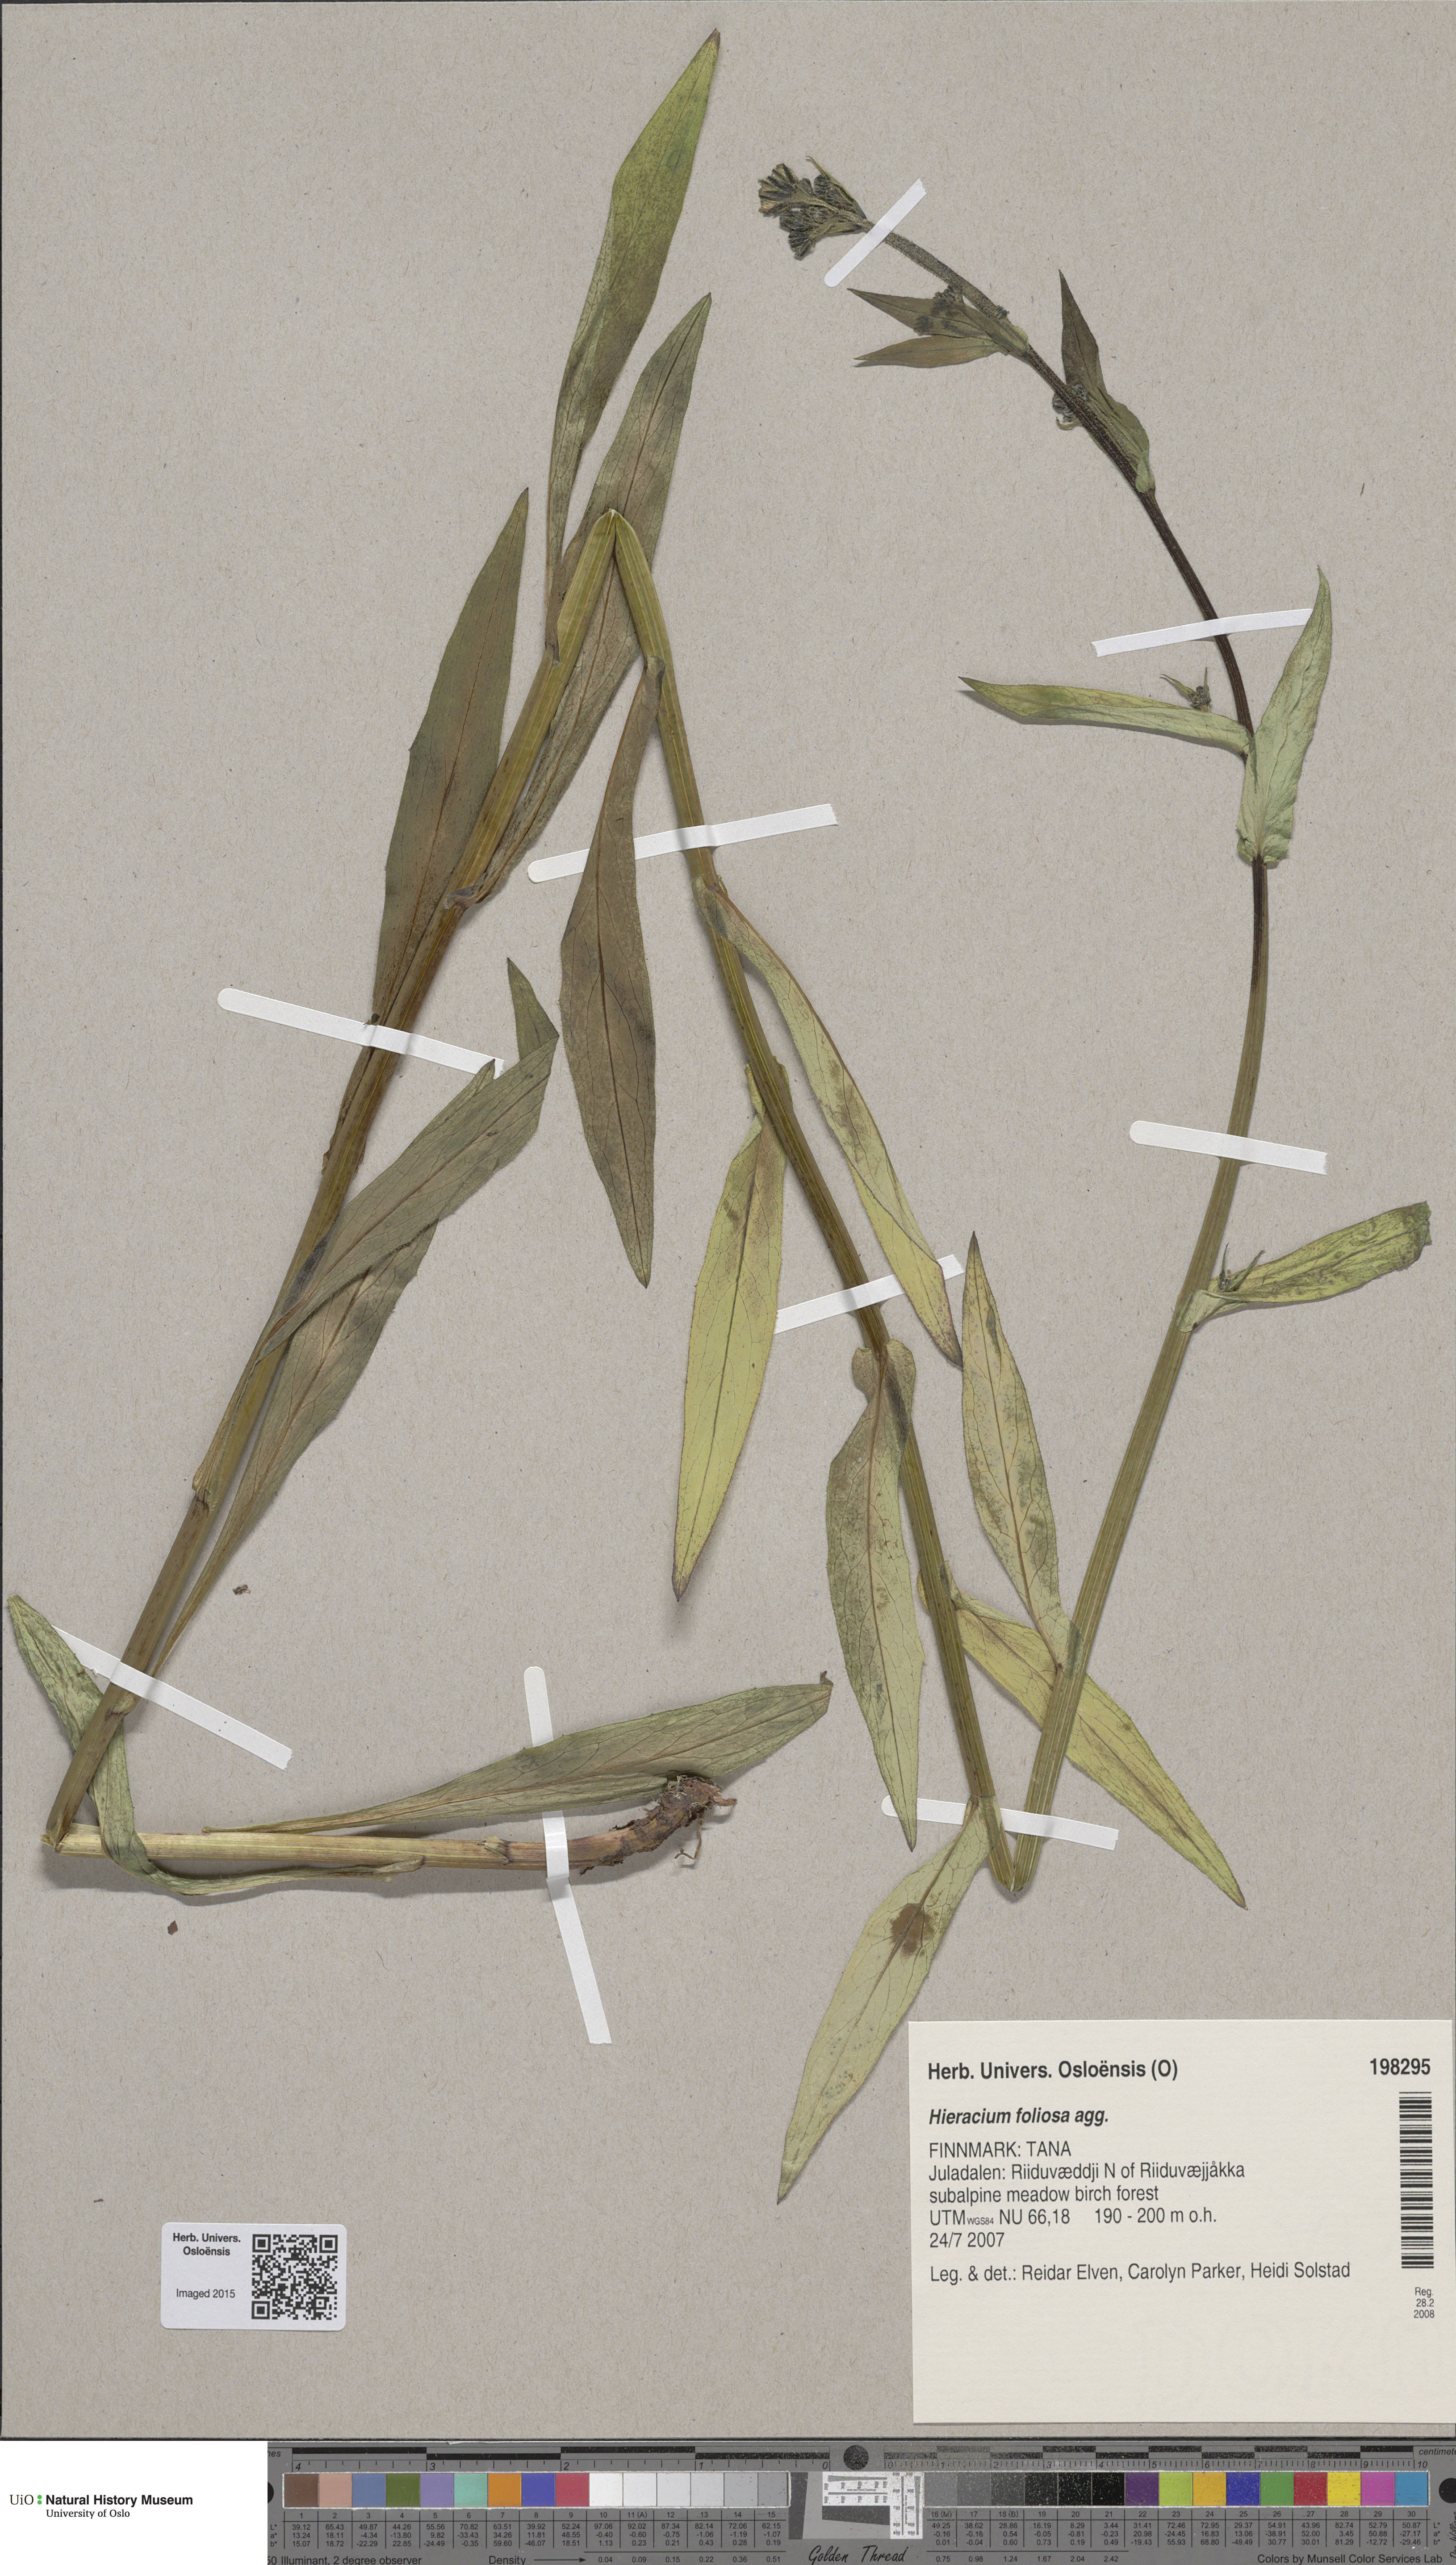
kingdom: Plantae
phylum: Tracheophyta
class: Magnoliopsida
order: Asterales
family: Asteraceae
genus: Hieracium
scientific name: Hieracium
